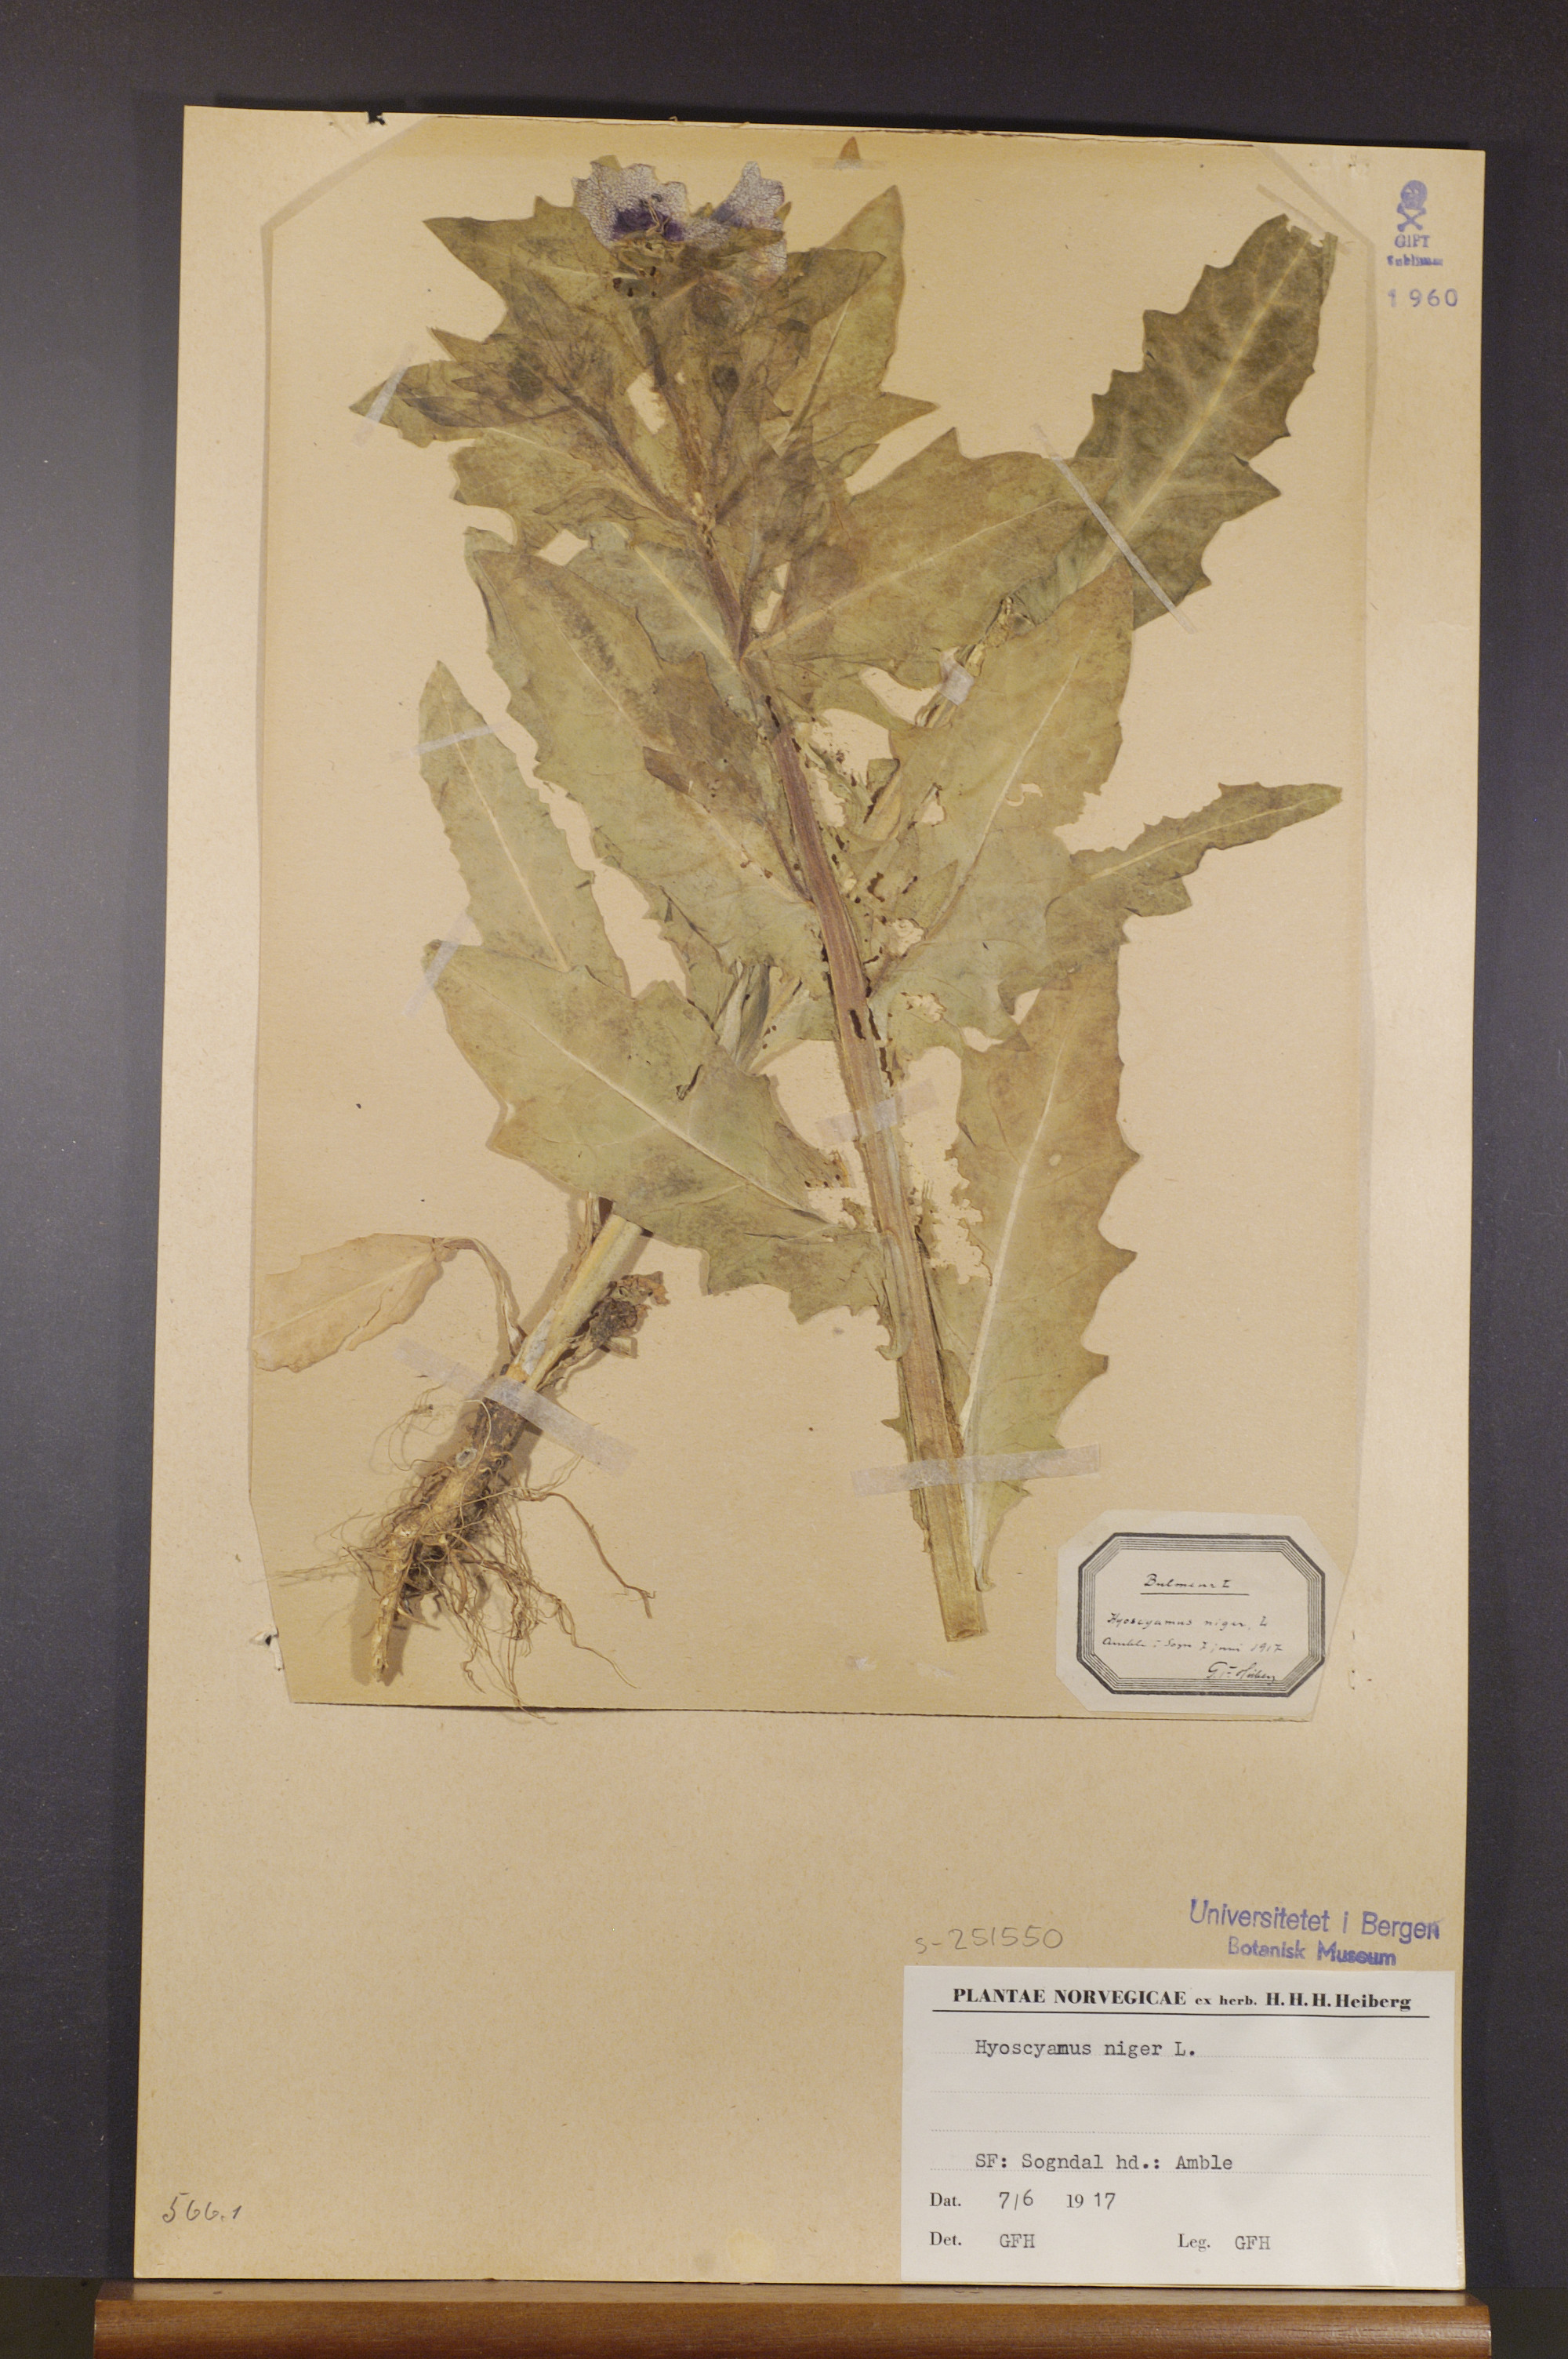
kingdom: Plantae
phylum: Tracheophyta
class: Magnoliopsida
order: Solanales
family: Solanaceae
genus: Hyoscyamus
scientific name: Hyoscyamus niger
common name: Henbane
